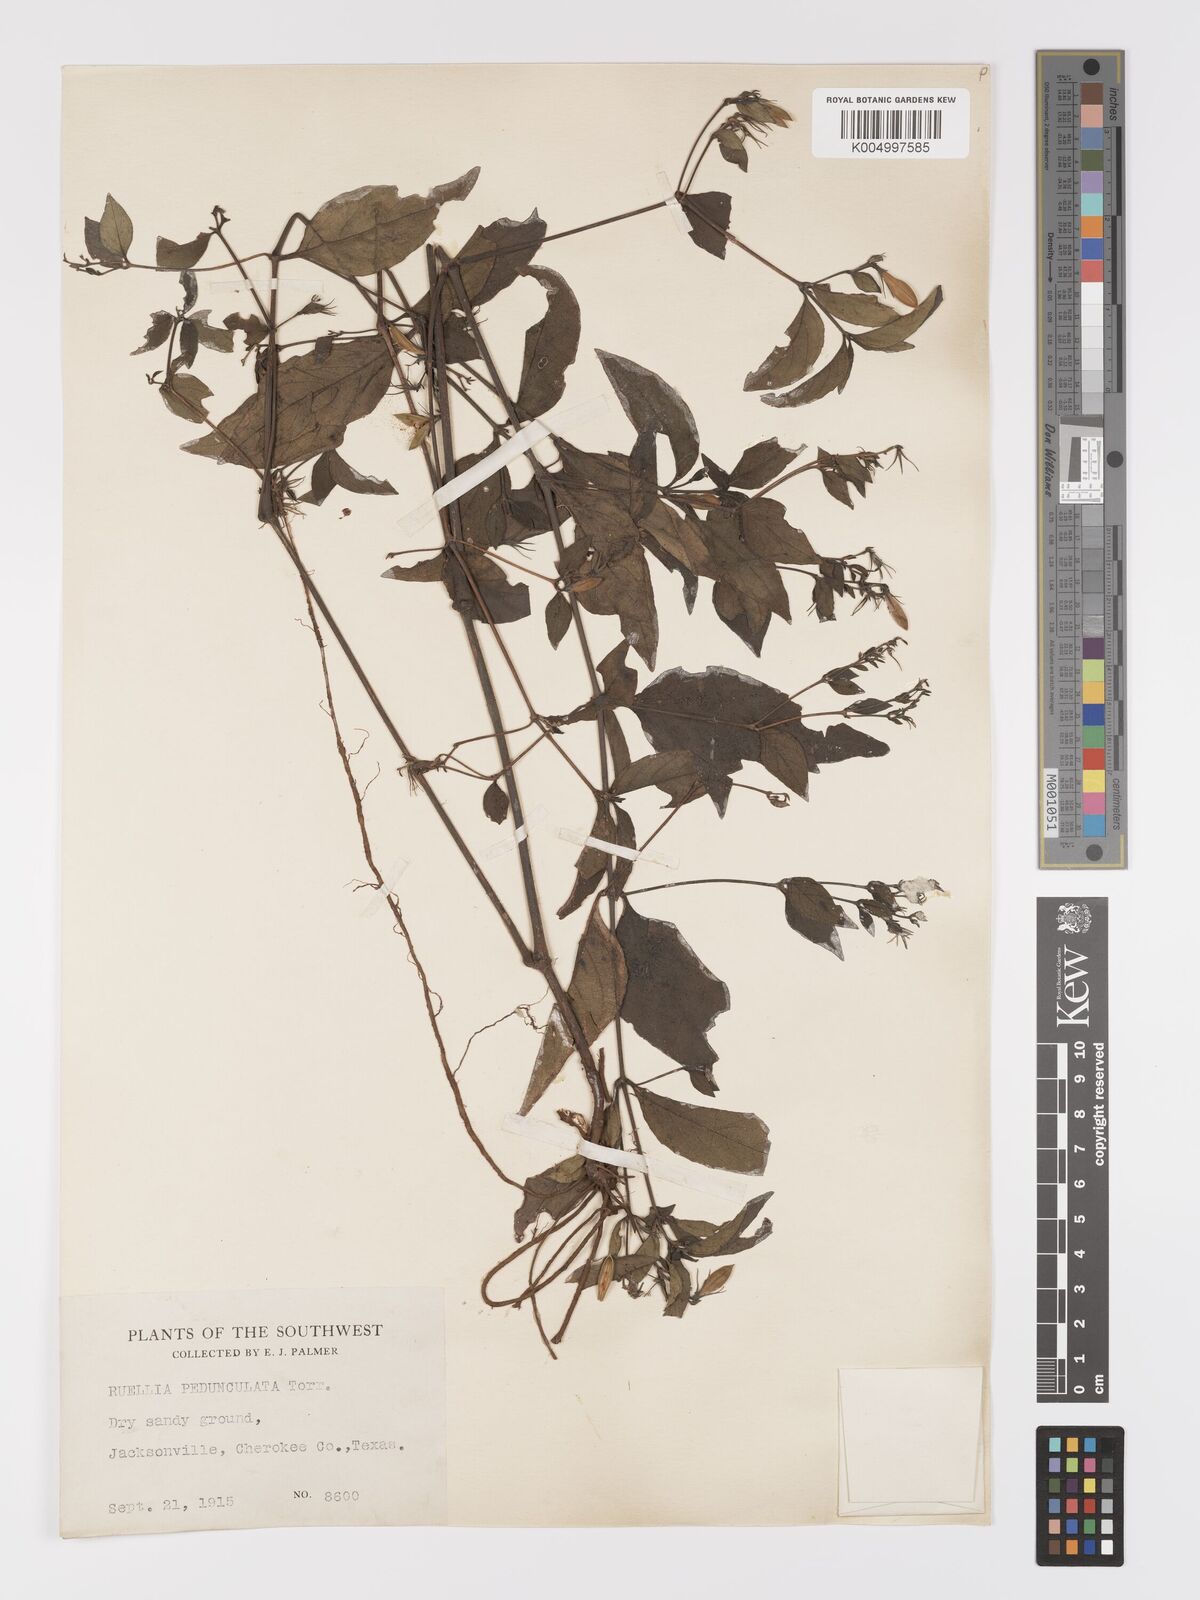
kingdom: Plantae
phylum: Tracheophyta
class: Magnoliopsida
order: Lamiales
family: Acanthaceae
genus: Ruellia
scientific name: Ruellia pedunculata
